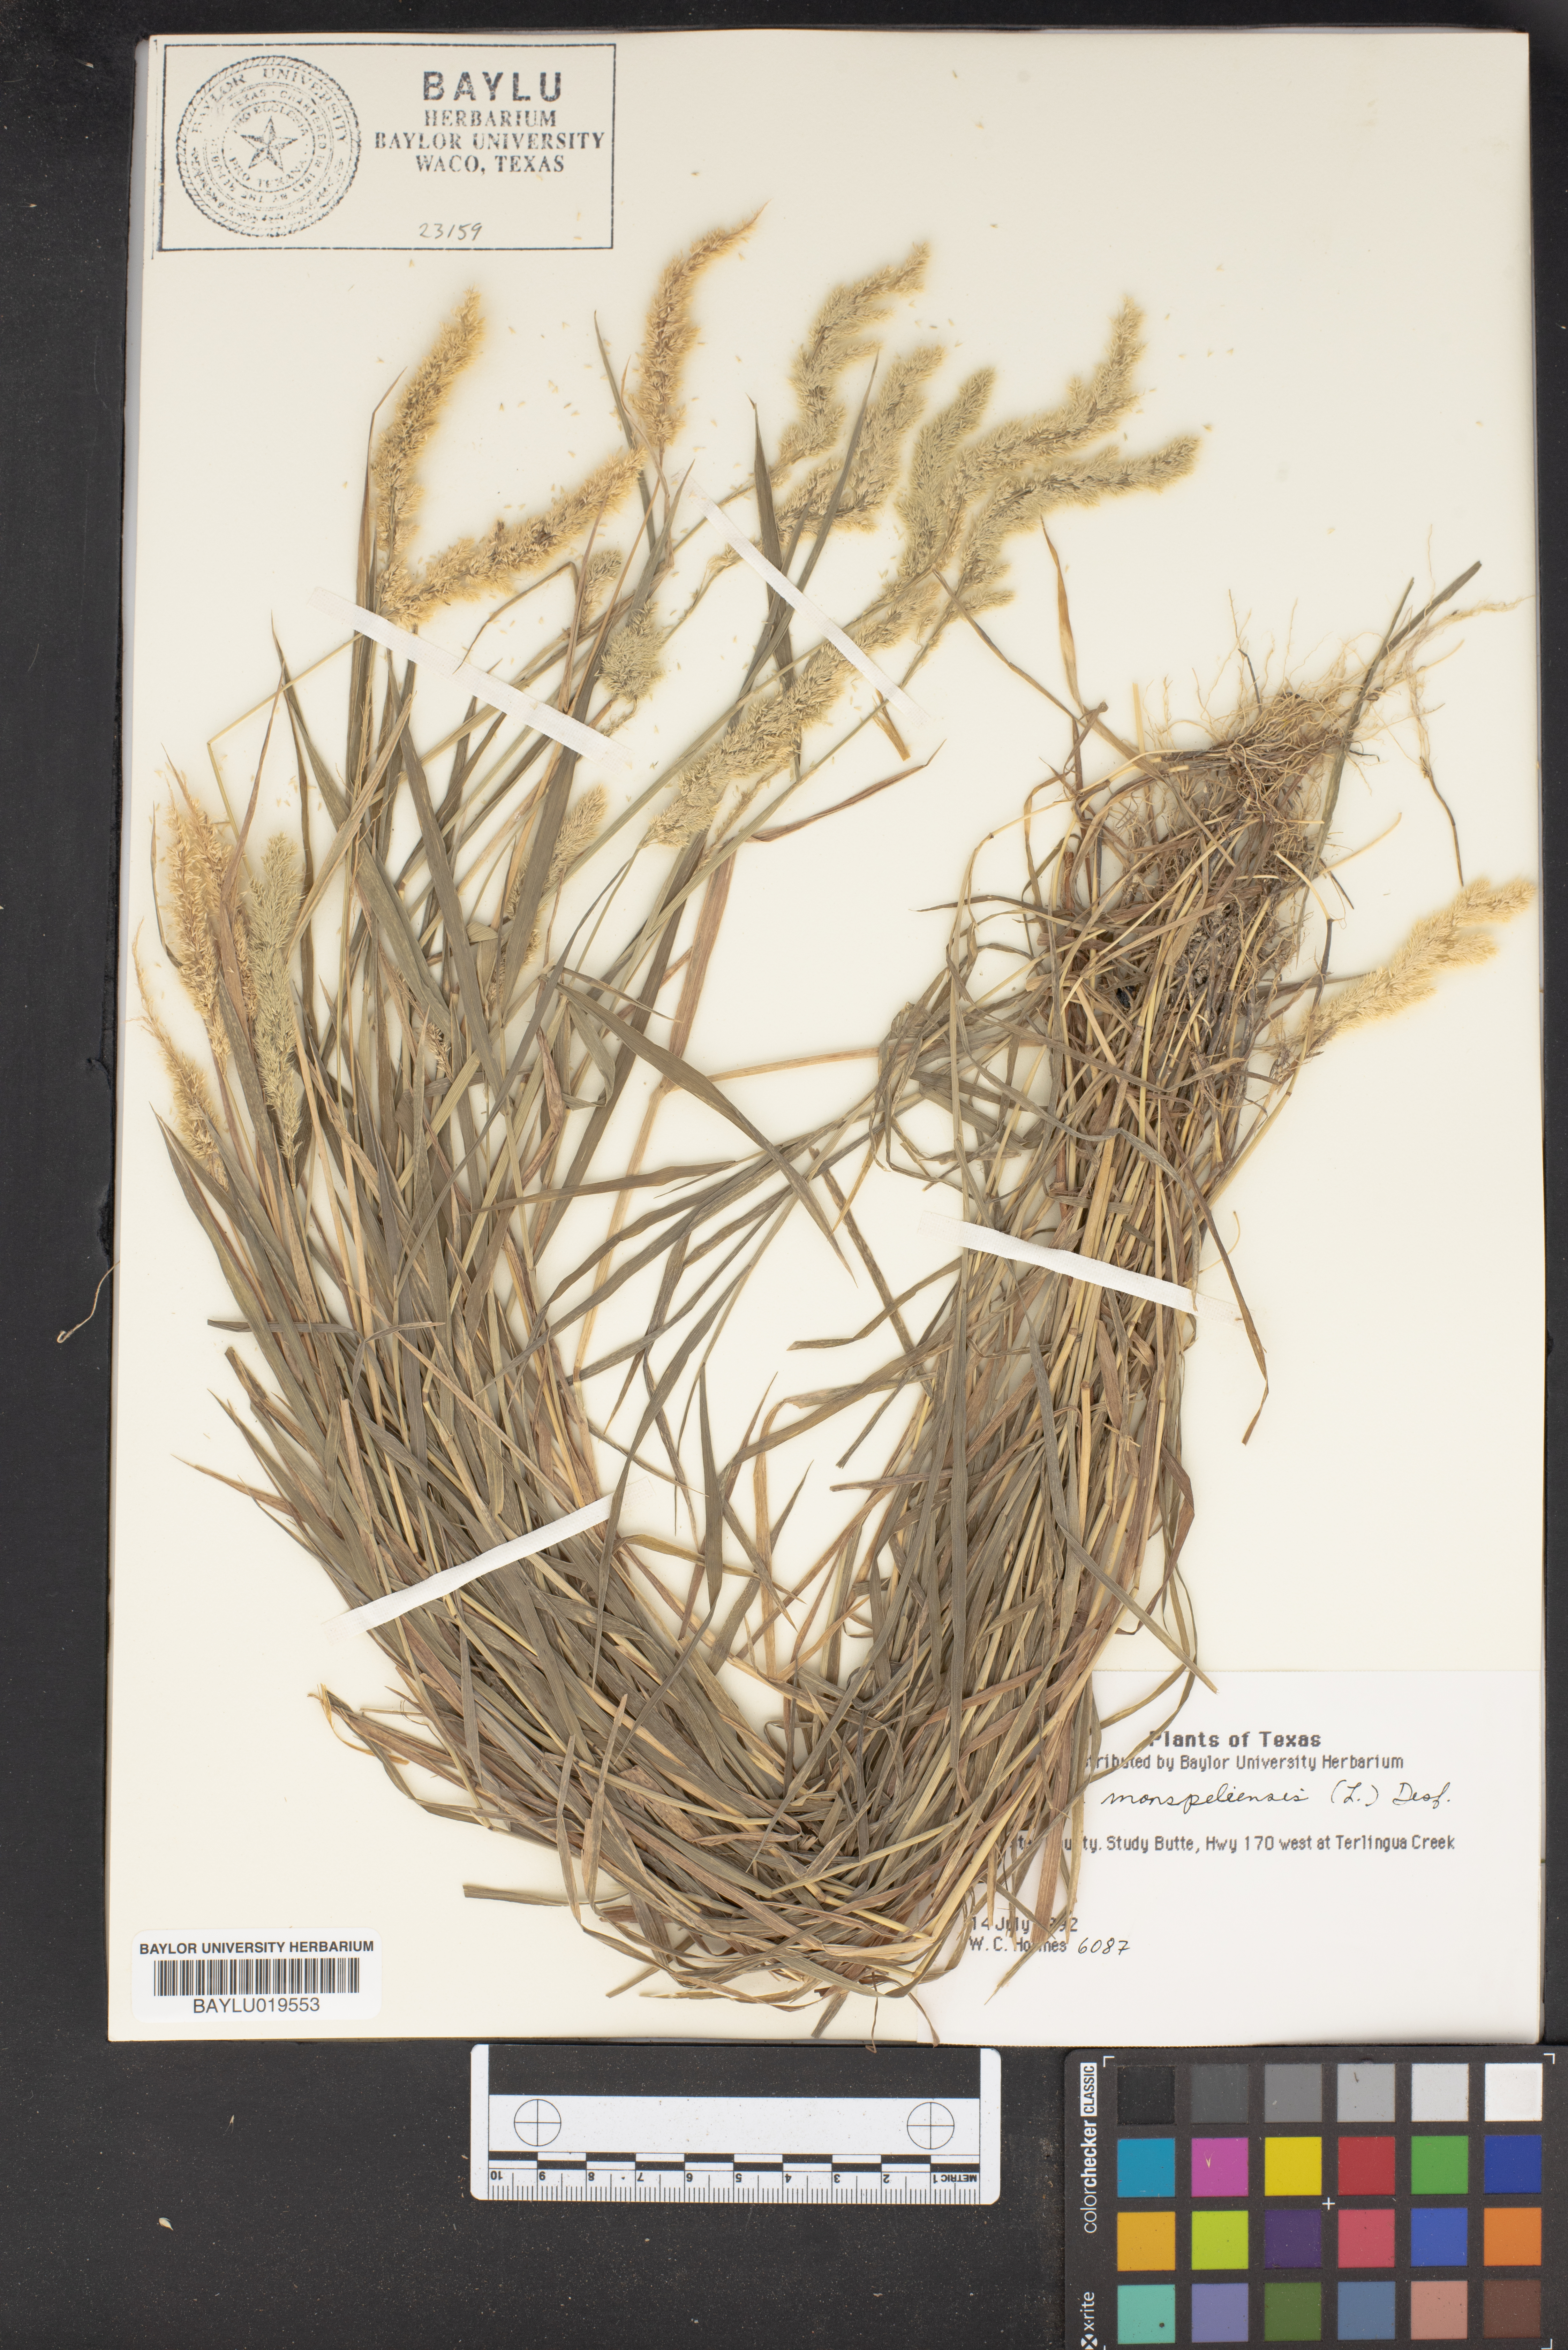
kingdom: Plantae
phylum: Tracheophyta
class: Liliopsida
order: Poales
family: Poaceae
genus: Polypogon
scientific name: Polypogon monspeliensis
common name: Annual rabbitsfoot grass
